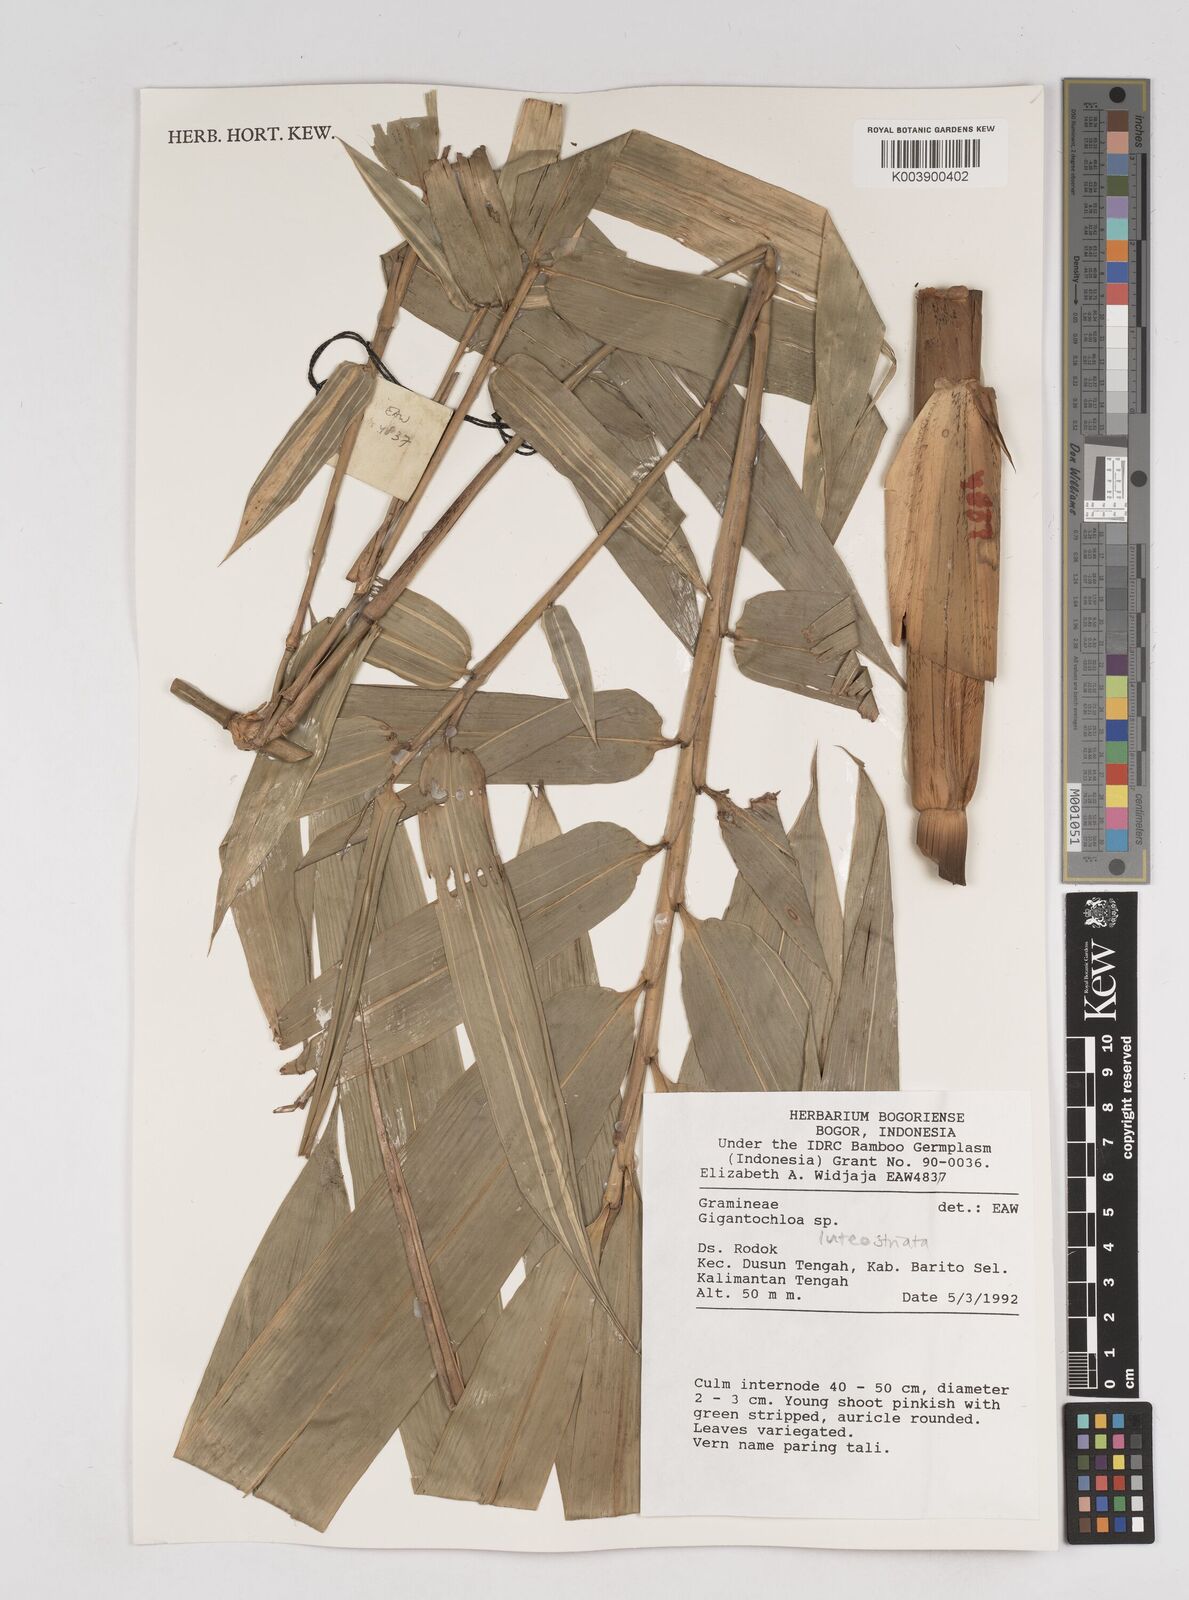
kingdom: Plantae
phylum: Tracheophyta
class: Liliopsida
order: Poales
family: Poaceae
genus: Gigantochloa
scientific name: Gigantochloa luteostriata
